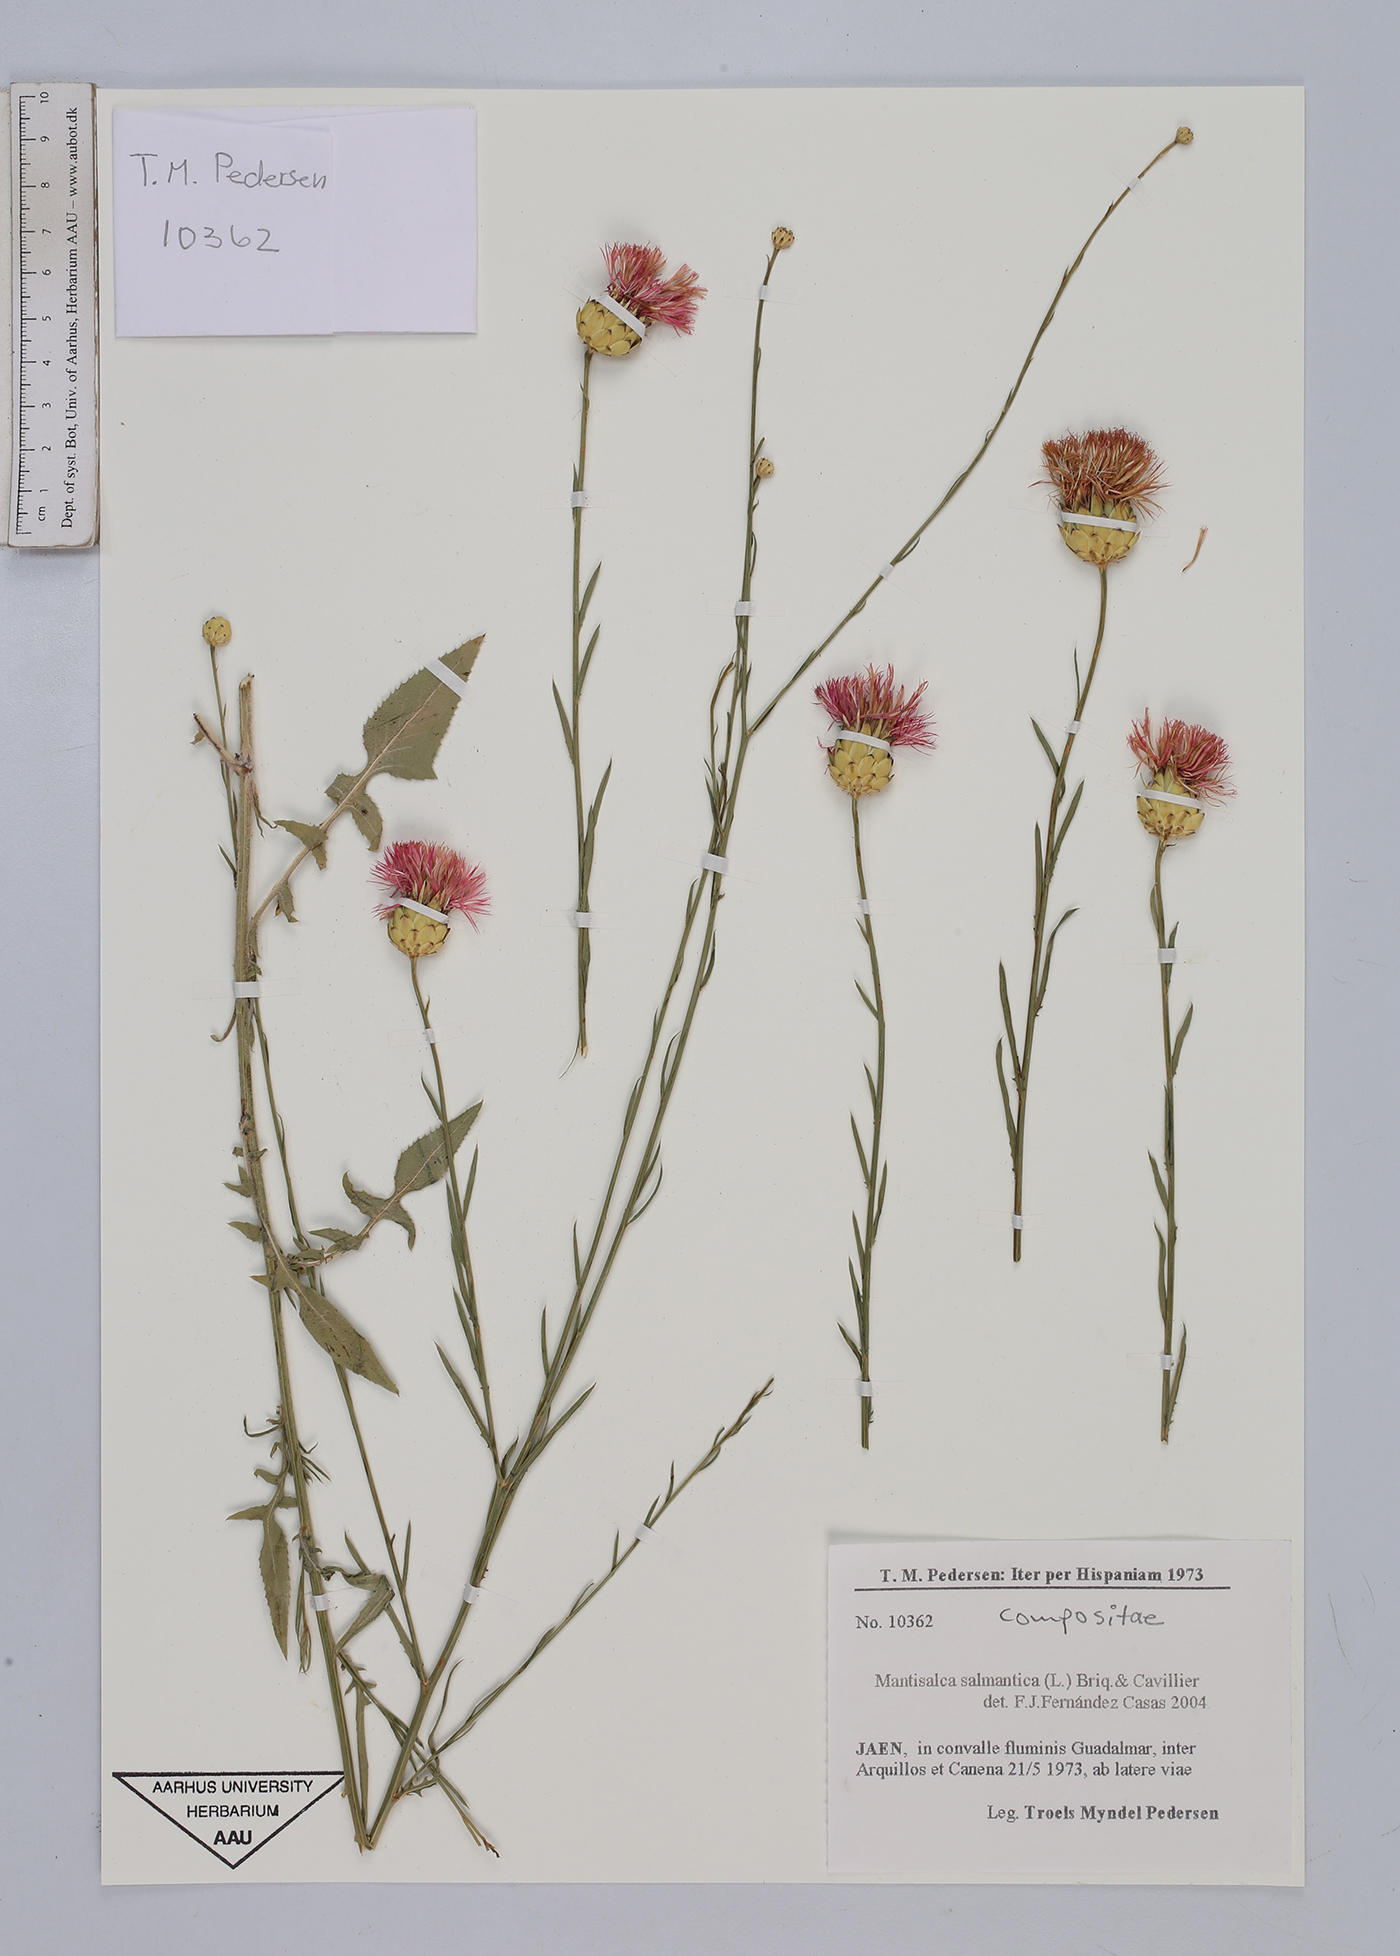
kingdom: Plantae
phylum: Tracheophyta
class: Magnoliopsida
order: Asterales
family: Asteraceae
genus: Mantisalca
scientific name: Mantisalca salmantica
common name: Dagger flower
